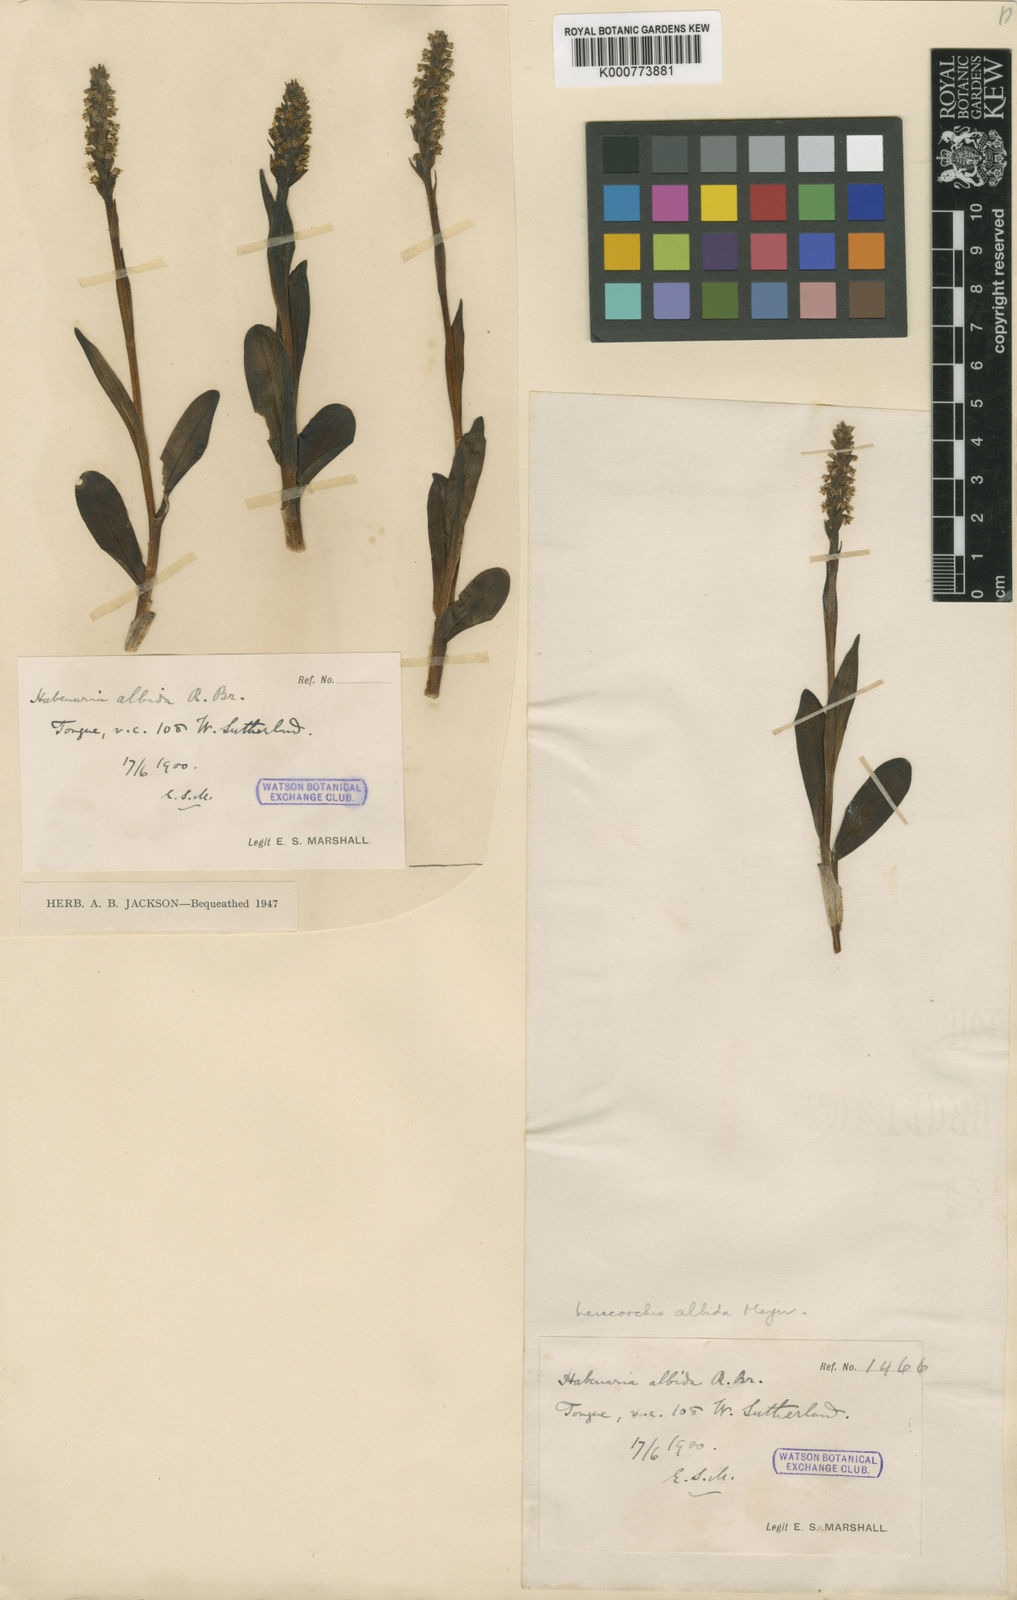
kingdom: Plantae
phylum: Tracheophyta
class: Liliopsida
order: Asparagales
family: Orchidaceae
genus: Pseudorchis
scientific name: Pseudorchis
